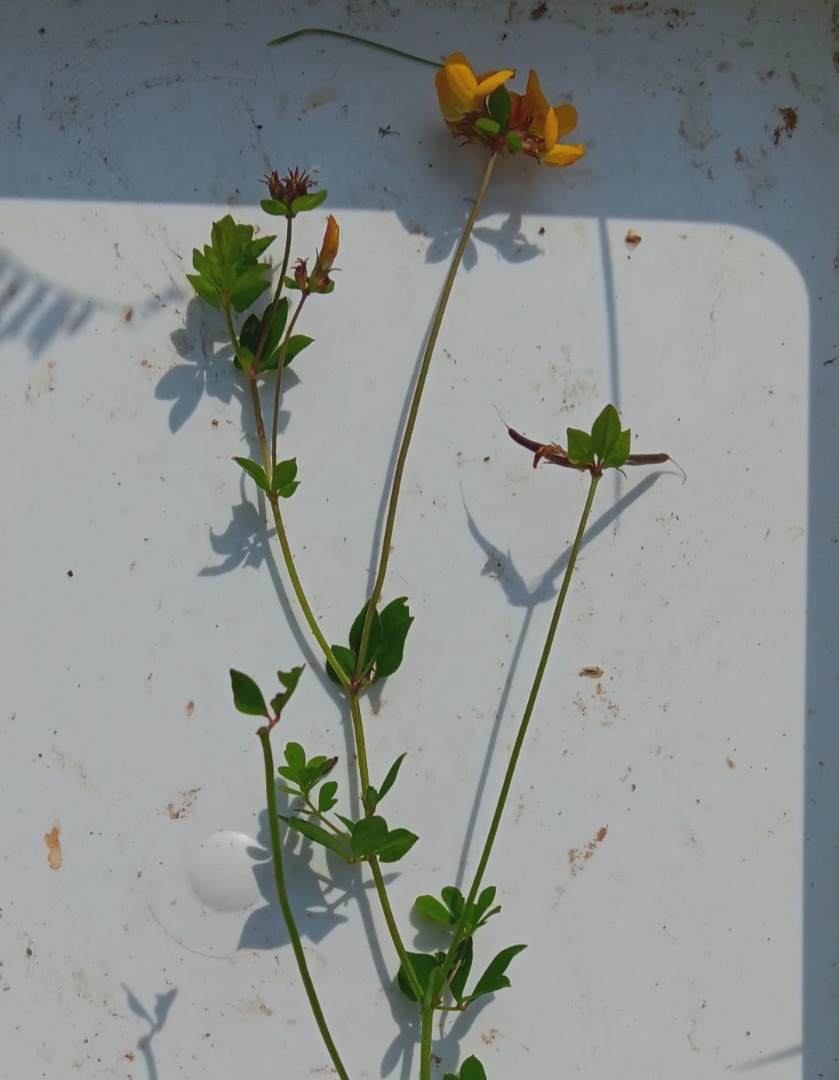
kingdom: Plantae
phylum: Tracheophyta
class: Magnoliopsida
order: Fabales
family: Fabaceae
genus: Lotus
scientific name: Lotus pedunculatus
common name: Sump-kællingetand
